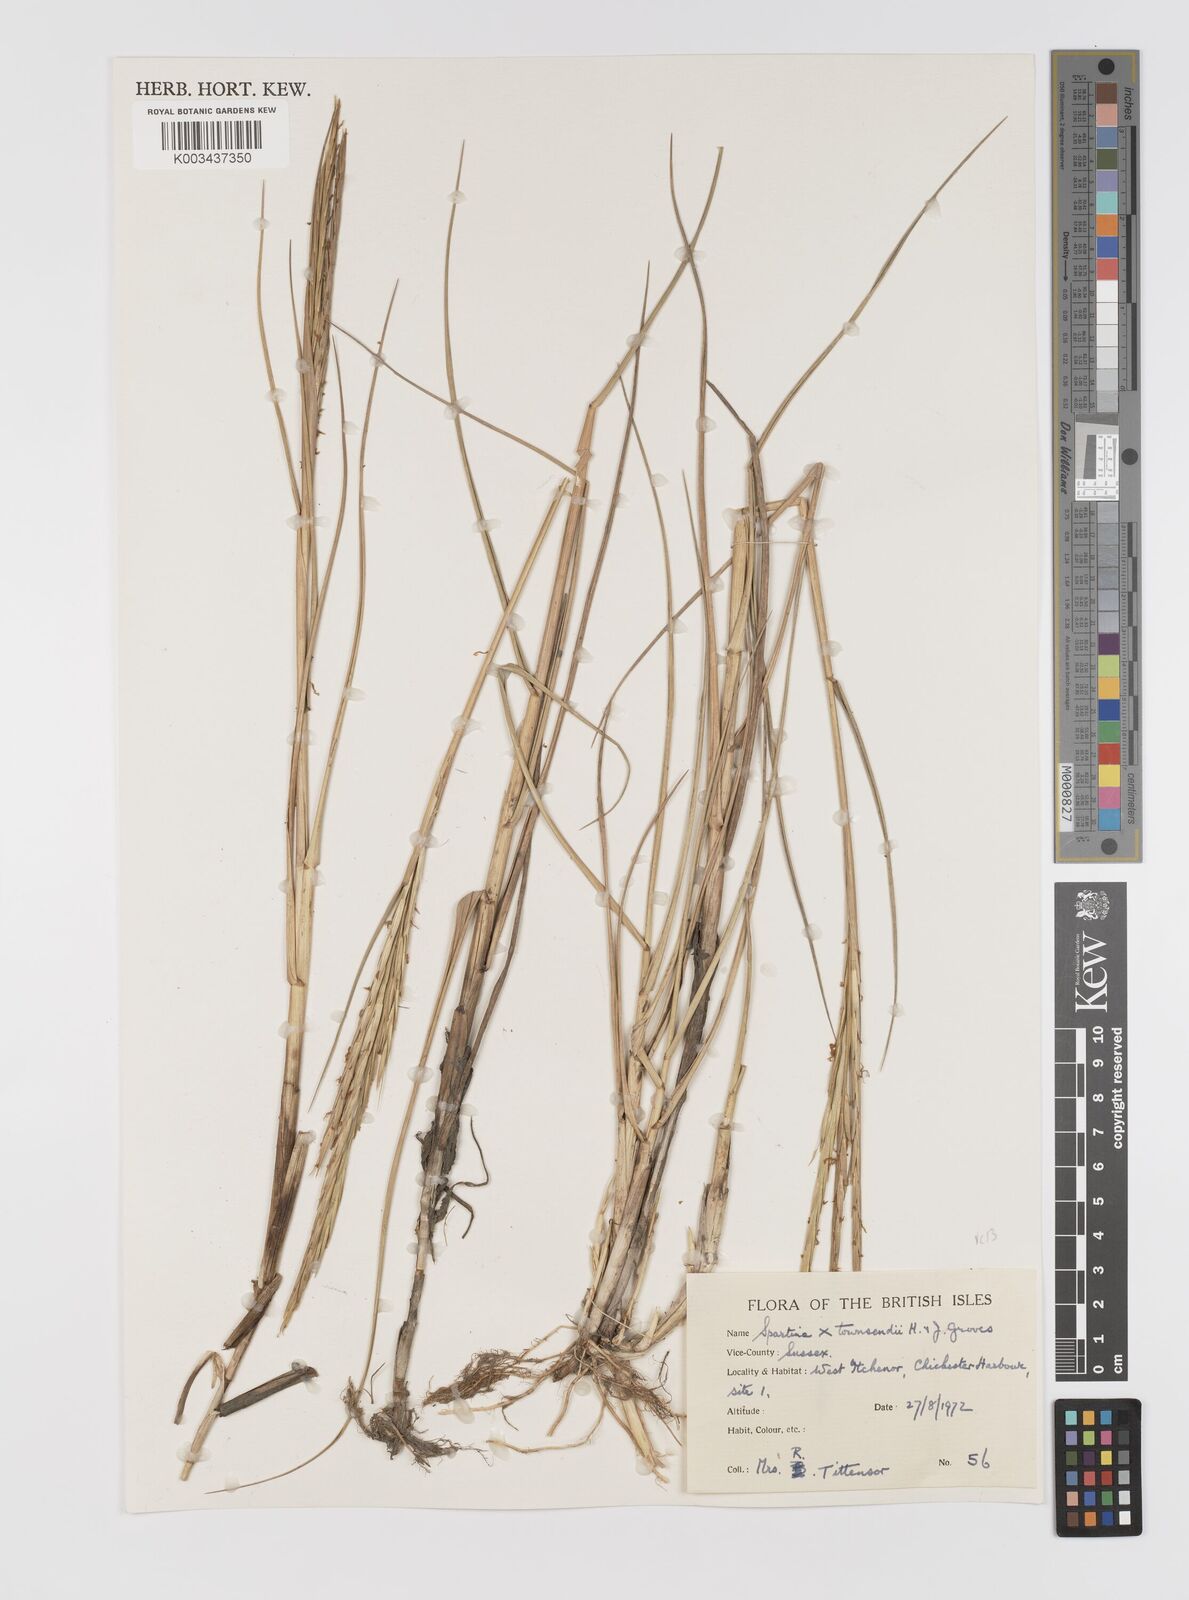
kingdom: Plantae
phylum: Tracheophyta
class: Liliopsida
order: Poales
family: Poaceae
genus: Sporobolus
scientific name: Sporobolus townsendii
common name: Townsend's cordgrass
